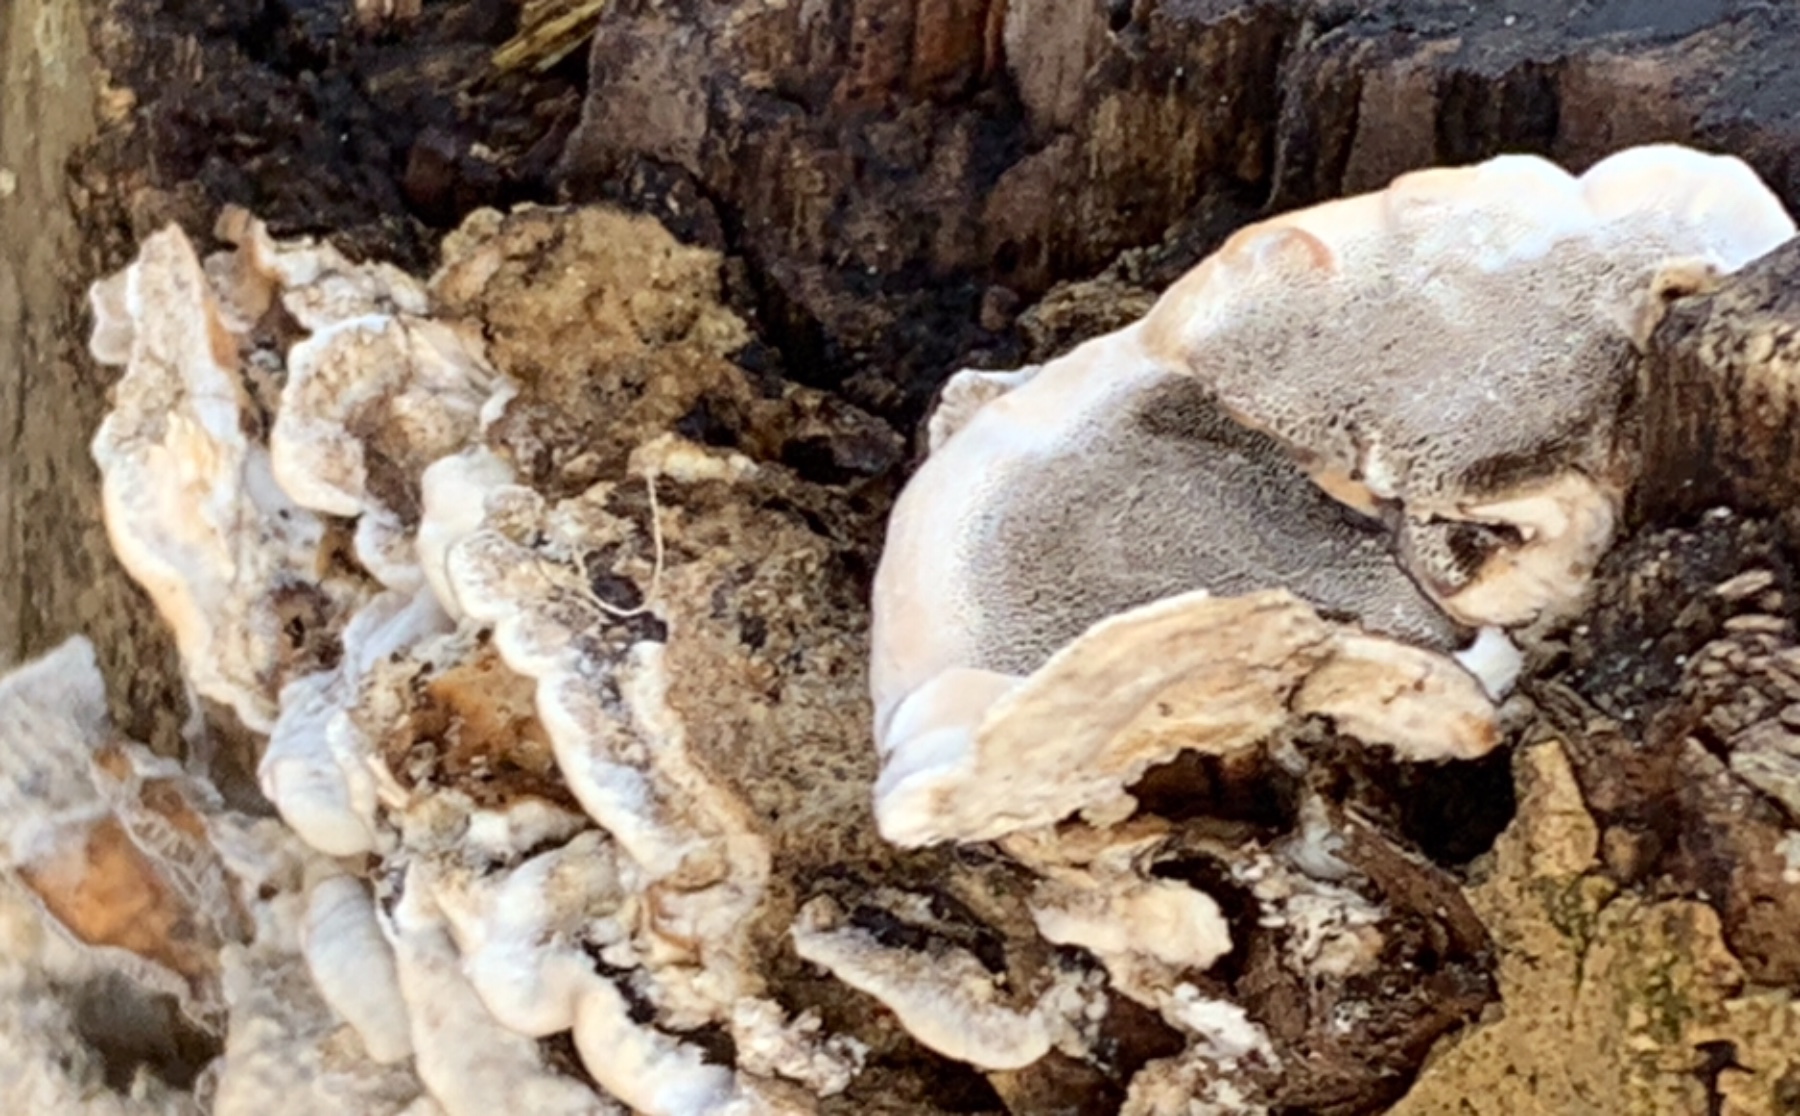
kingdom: Fungi
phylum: Basidiomycota
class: Agaricomycetes
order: Polyporales
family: Phanerochaetaceae
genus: Bjerkandera
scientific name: Bjerkandera adusta
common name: sveden sodporesvamp
